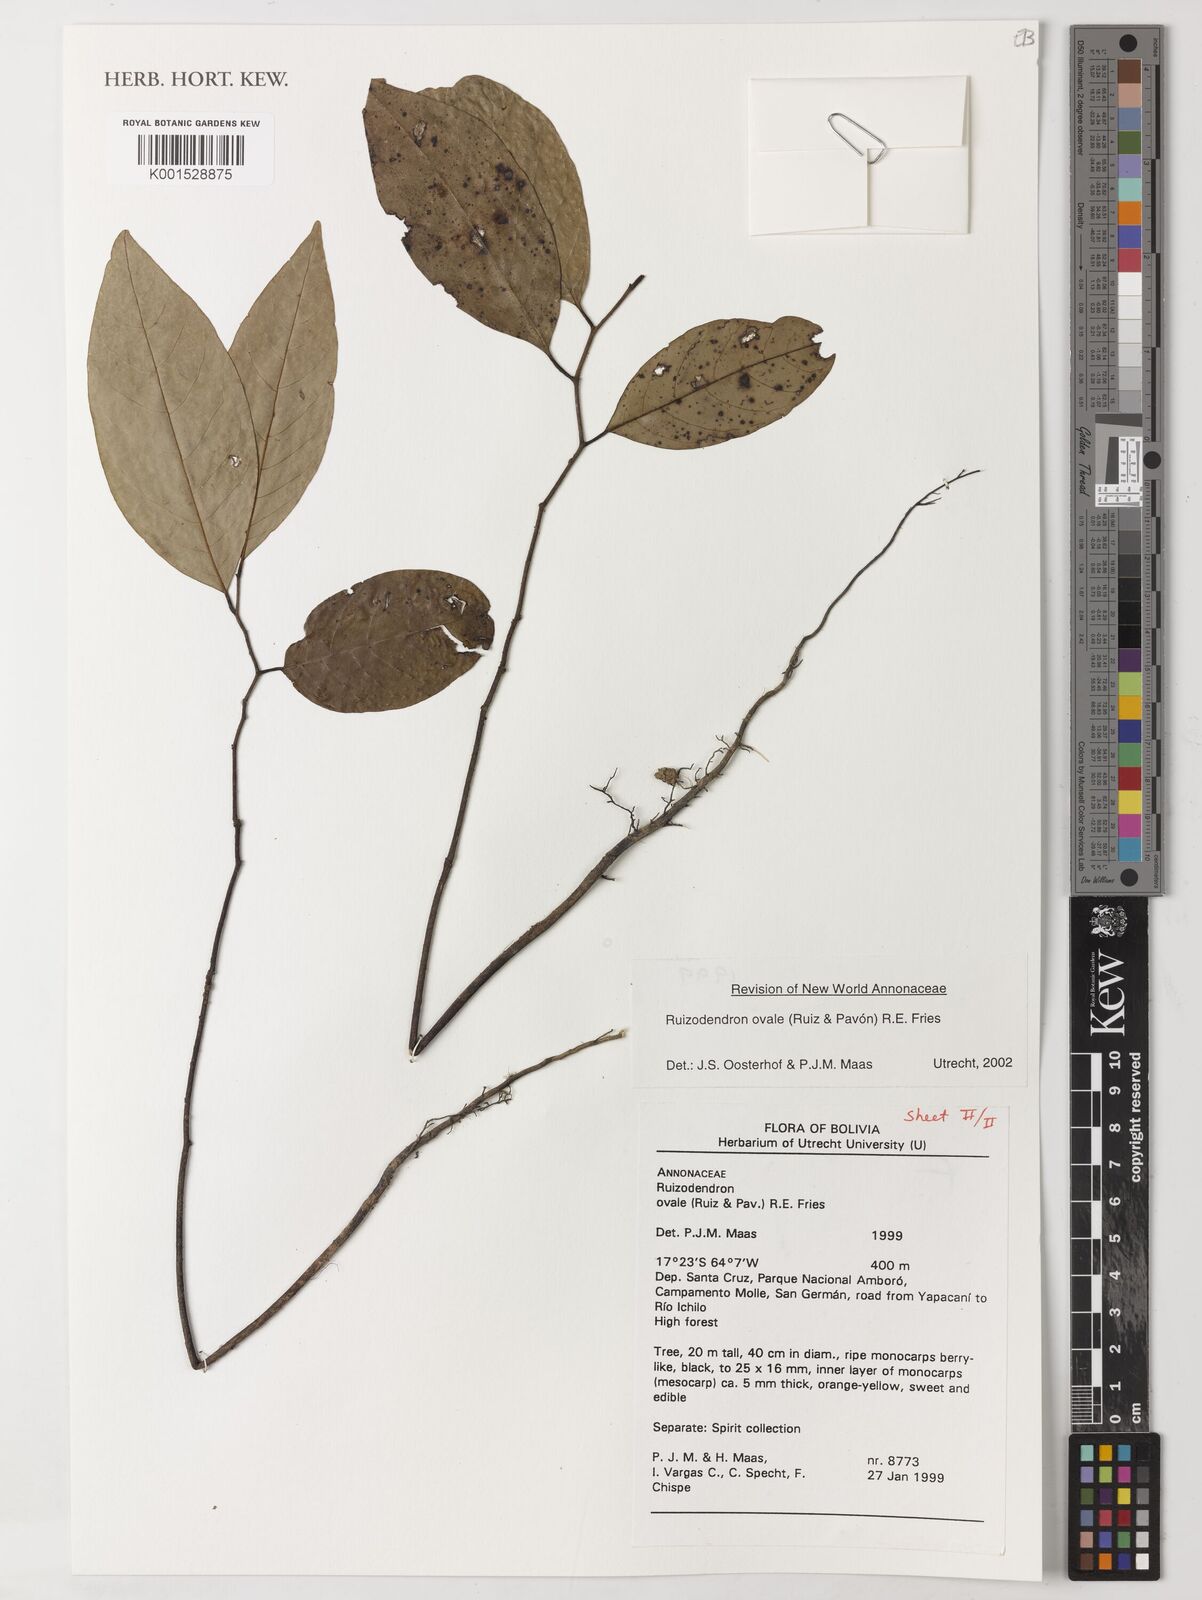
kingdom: Plantae
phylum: Tracheophyta
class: Magnoliopsida
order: Magnoliales
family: Annonaceae
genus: Ruizodendron
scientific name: Ruizodendron ovale
